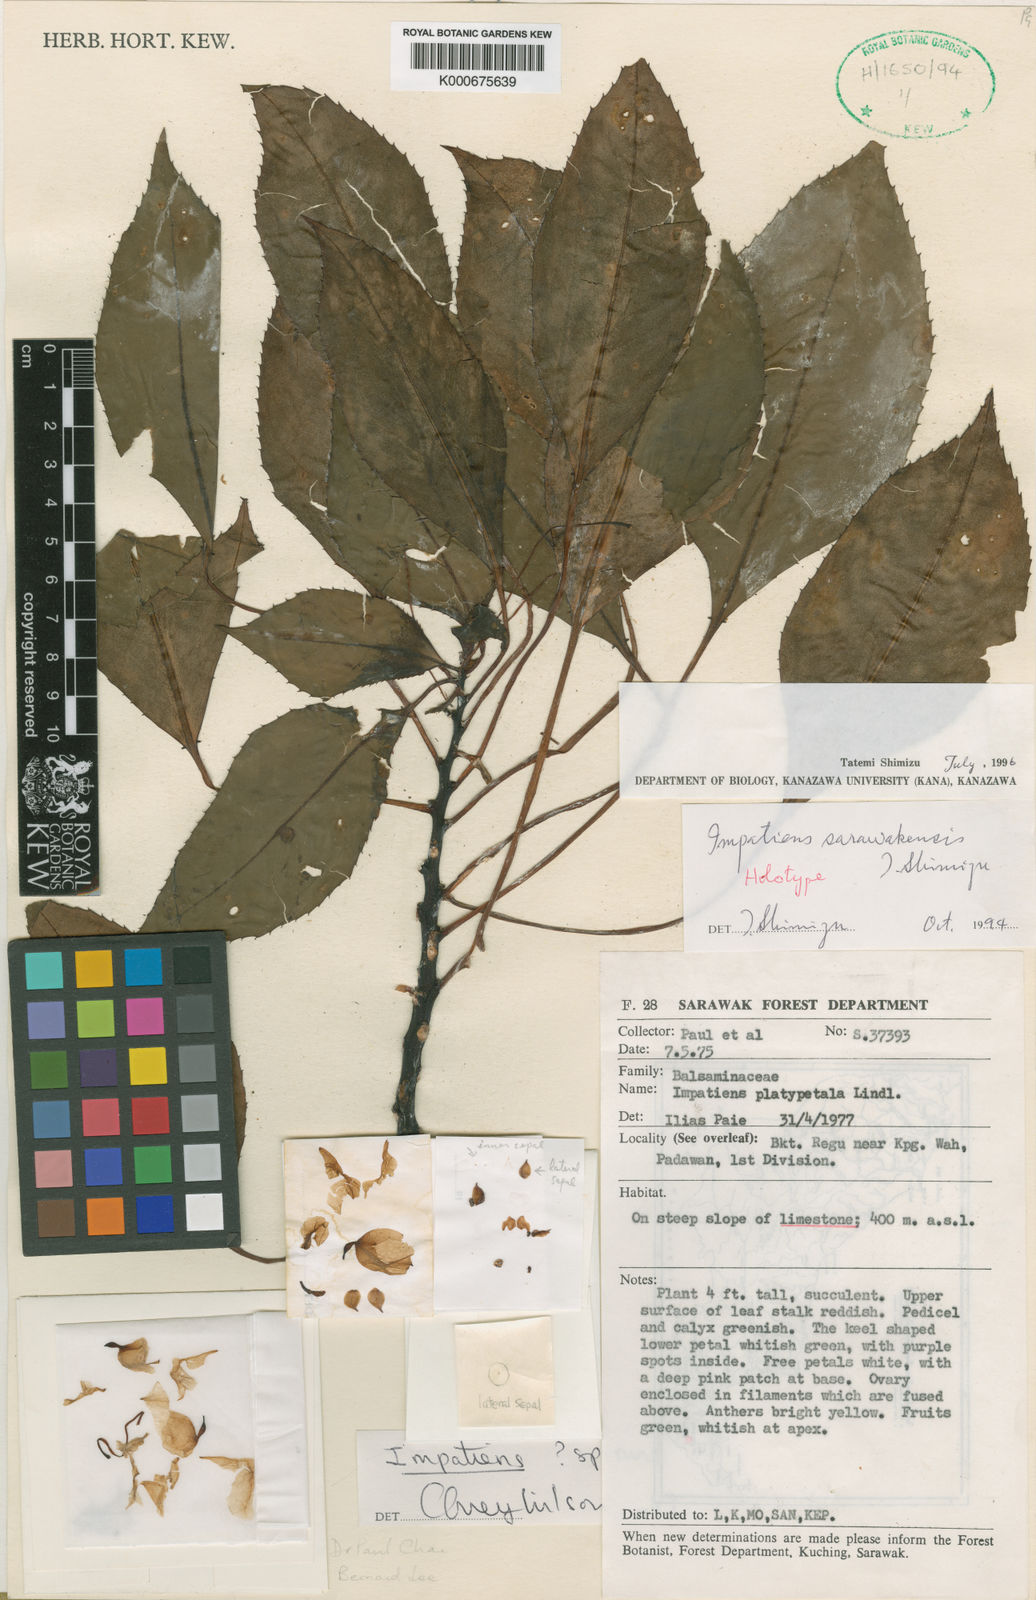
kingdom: Plantae
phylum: Tracheophyta
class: Magnoliopsida
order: Ericales
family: Balsaminaceae
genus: Impatiens
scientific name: Impatiens sarawakensis
